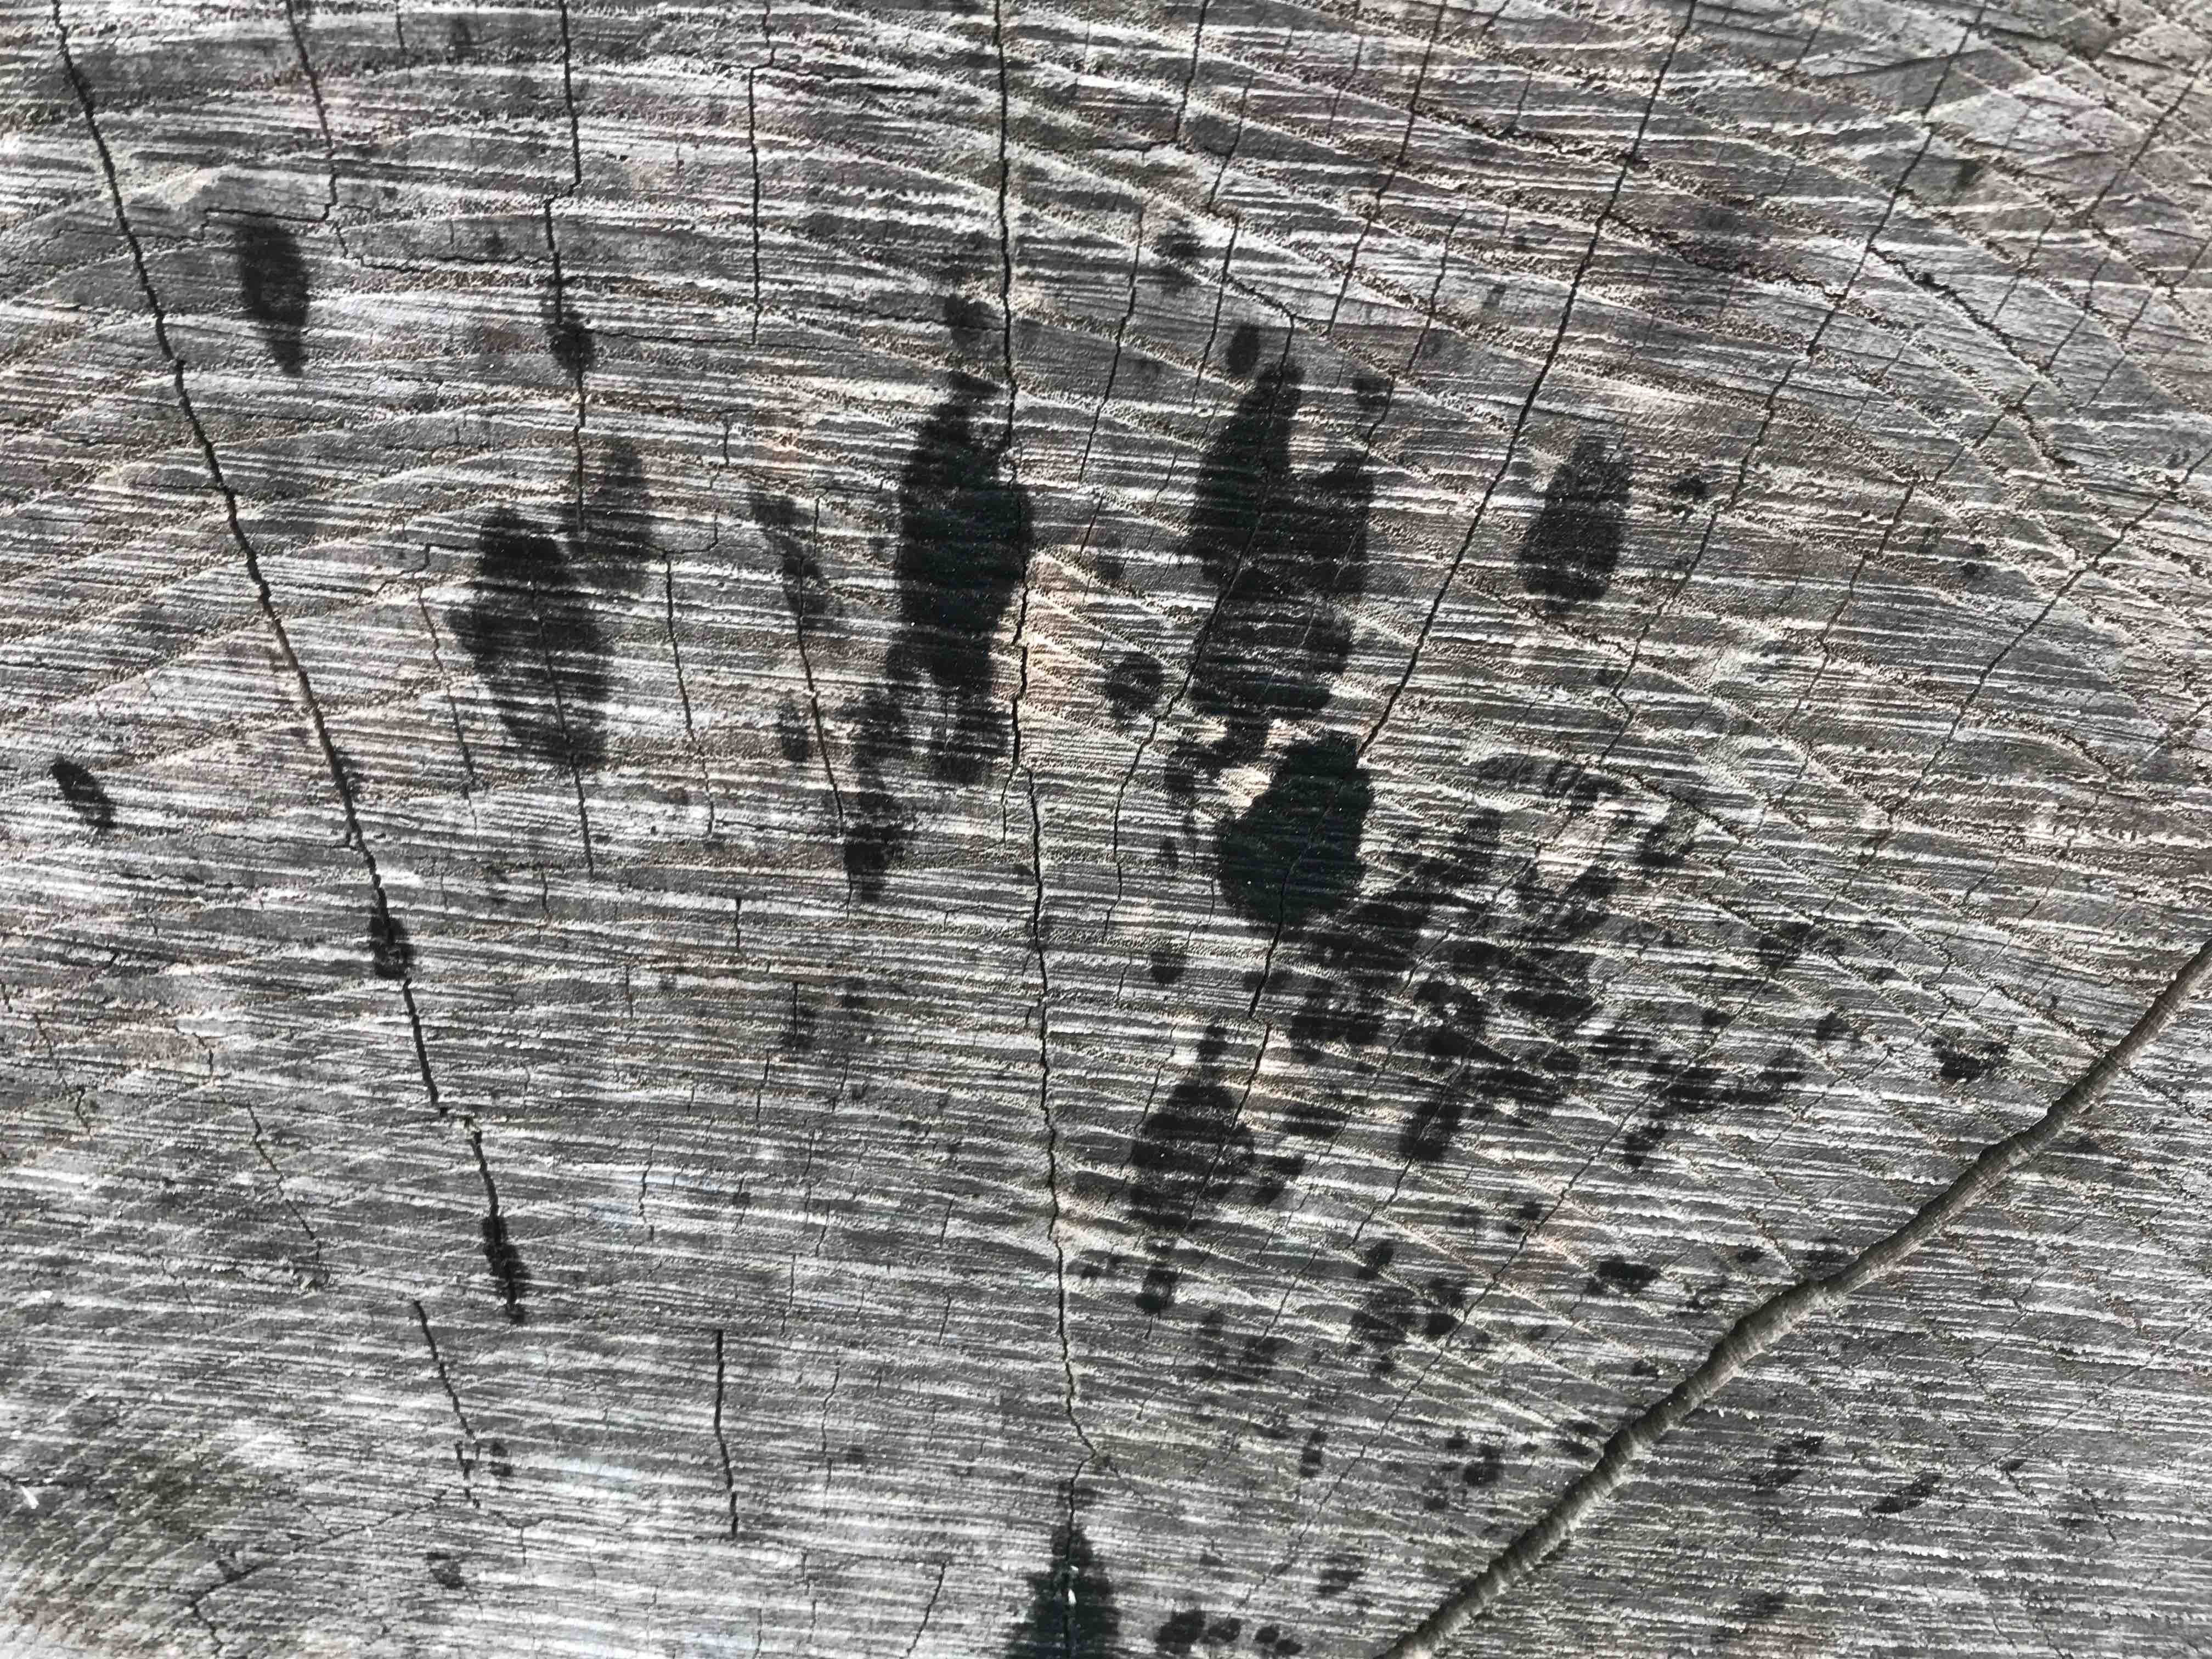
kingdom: Fungi
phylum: Ascomycota
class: Leotiomycetes
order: Helotiales
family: Helotiaceae
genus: Bispora
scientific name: Bispora pallescens
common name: måtte-snitskive
